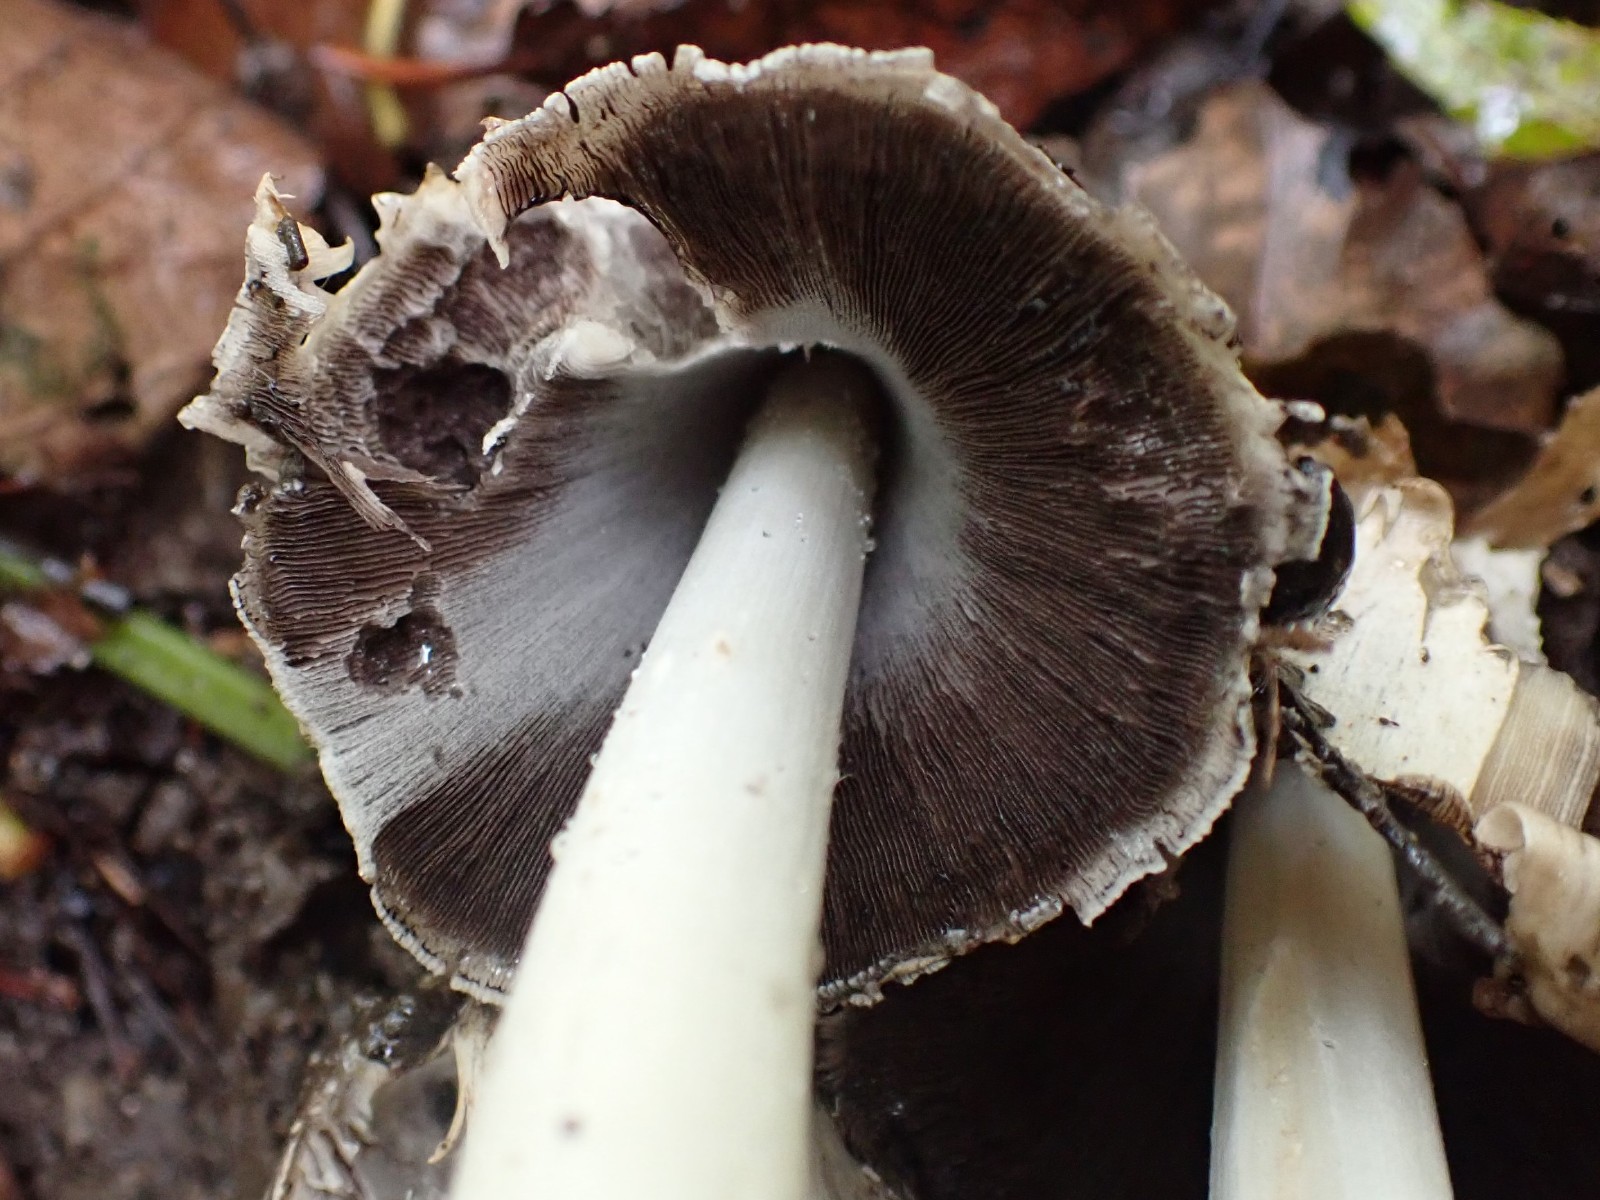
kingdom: Fungi
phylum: Basidiomycota
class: Agaricomycetes
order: Agaricales
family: Psathyrellaceae
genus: Coprinopsis
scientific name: Coprinopsis atramentaria
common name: almindelig blækhat
